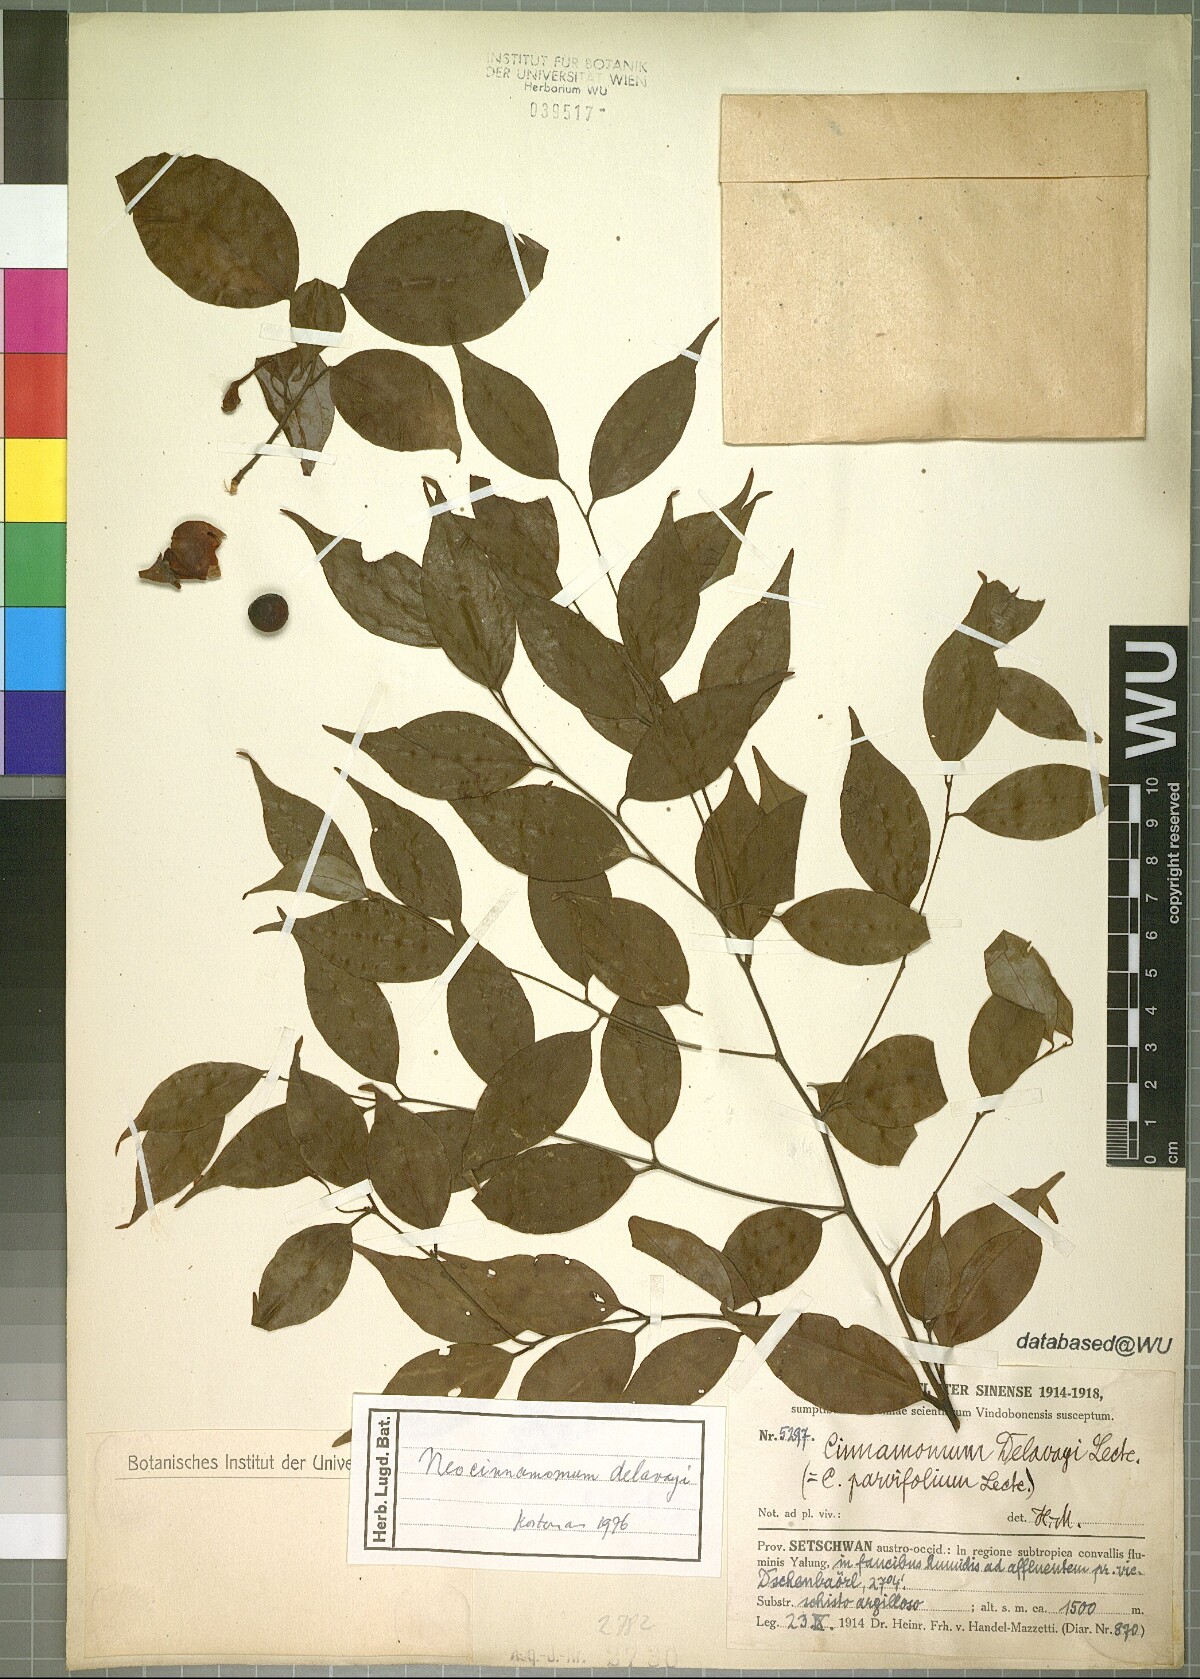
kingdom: Plantae
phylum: Tracheophyta
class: Magnoliopsida
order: Laurales
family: Lauraceae
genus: Neocinnamomum
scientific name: Neocinnamomum delavayi
